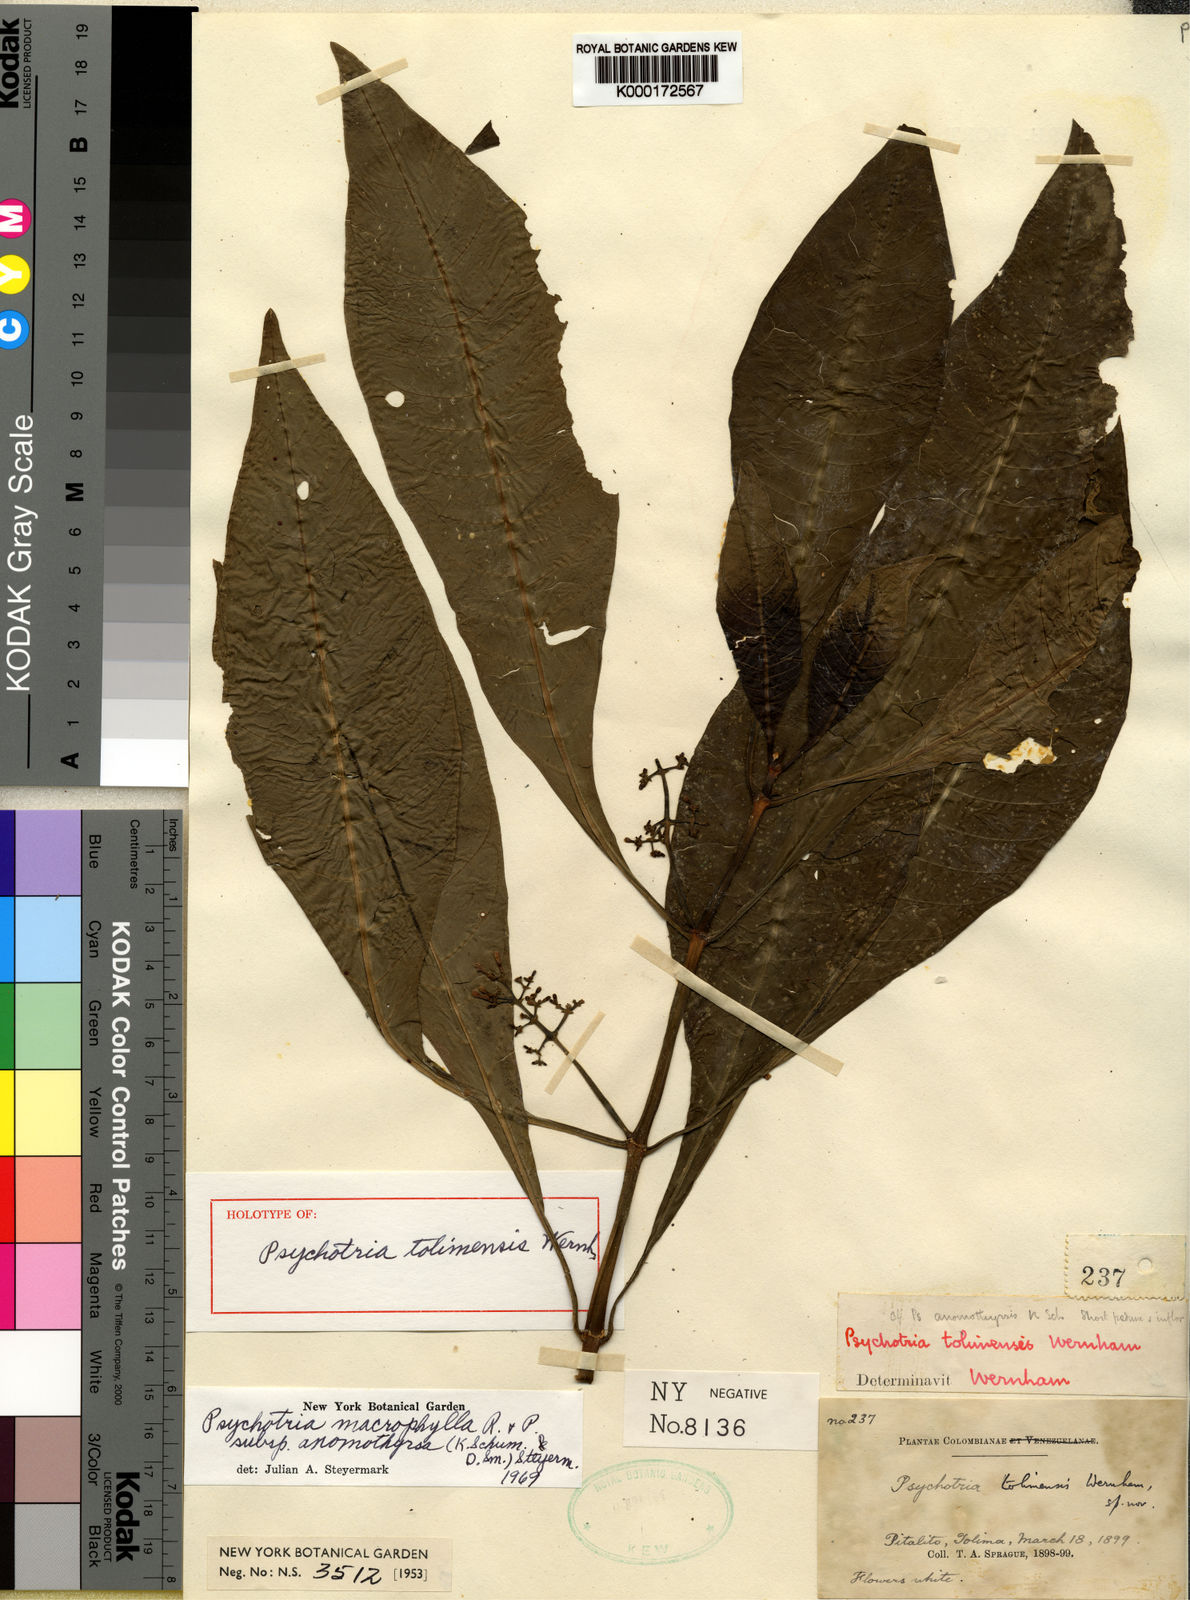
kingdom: Plantae
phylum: Tracheophyta
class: Magnoliopsida
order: Gentianales
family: Rubiaceae
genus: Notopleura
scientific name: Notopleura tolimensis
